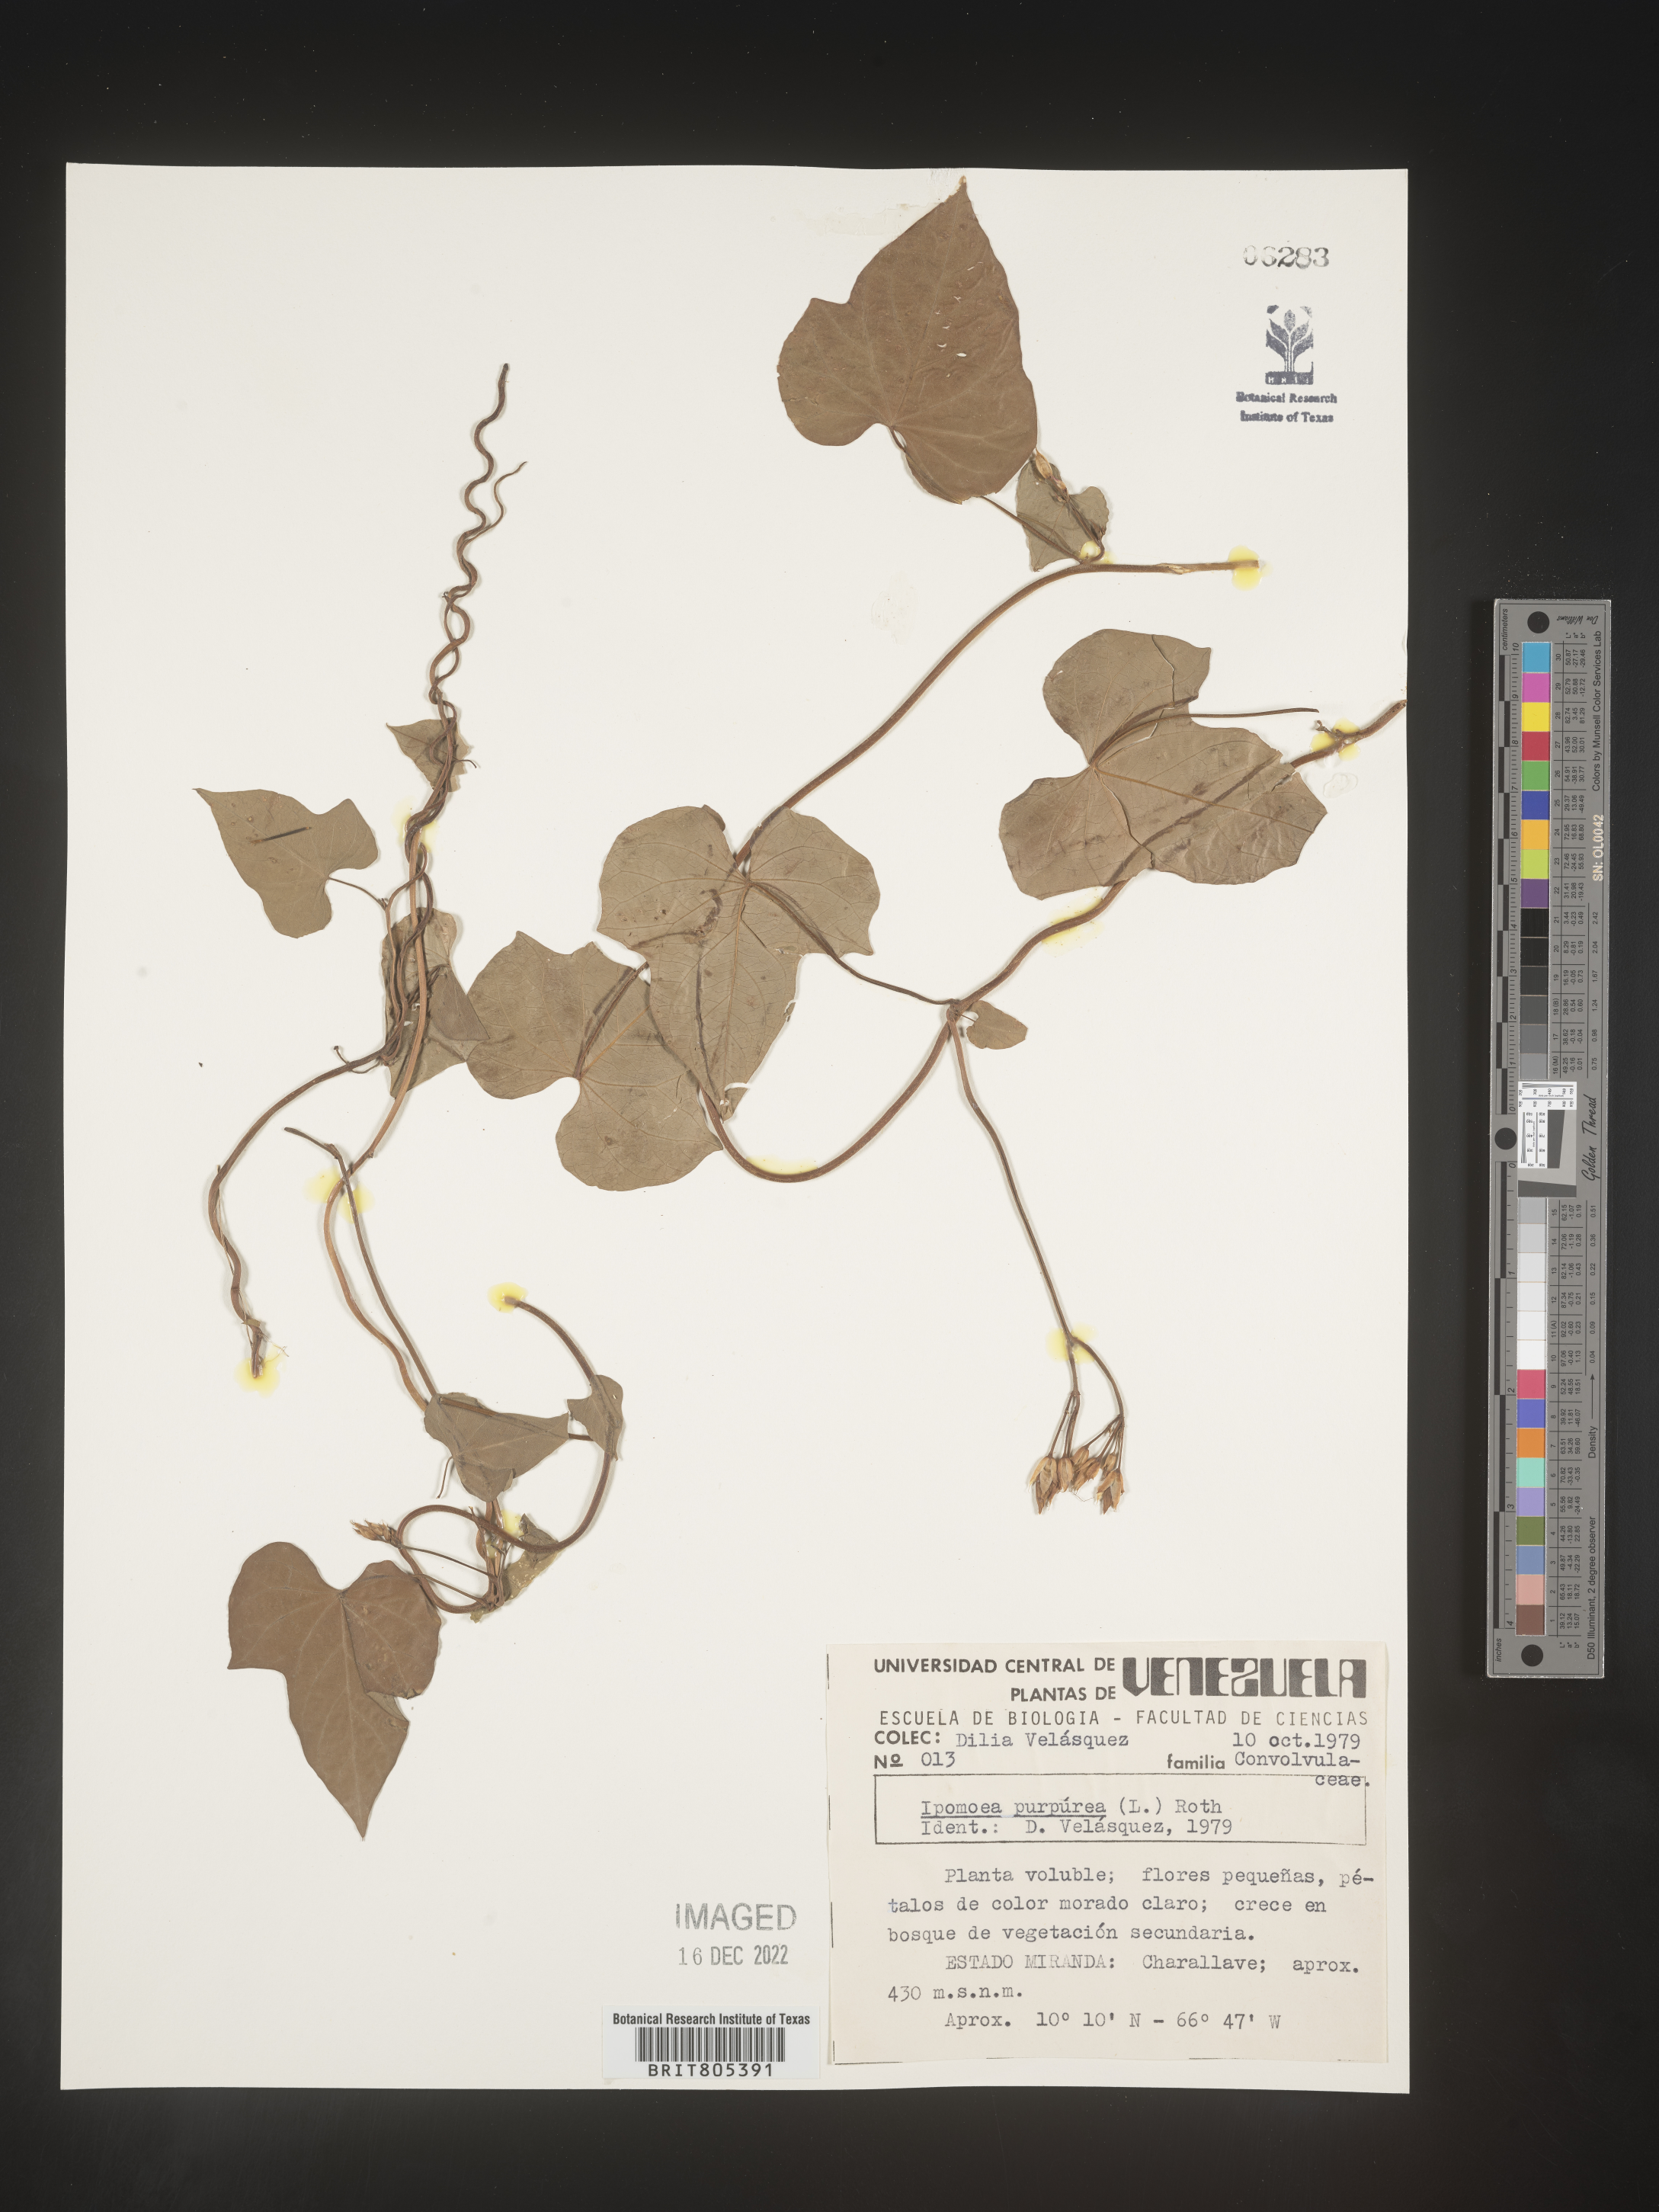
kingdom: Plantae
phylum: Tracheophyta
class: Magnoliopsida
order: Solanales
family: Convolvulaceae
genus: Ipomoea
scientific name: Ipomoea
